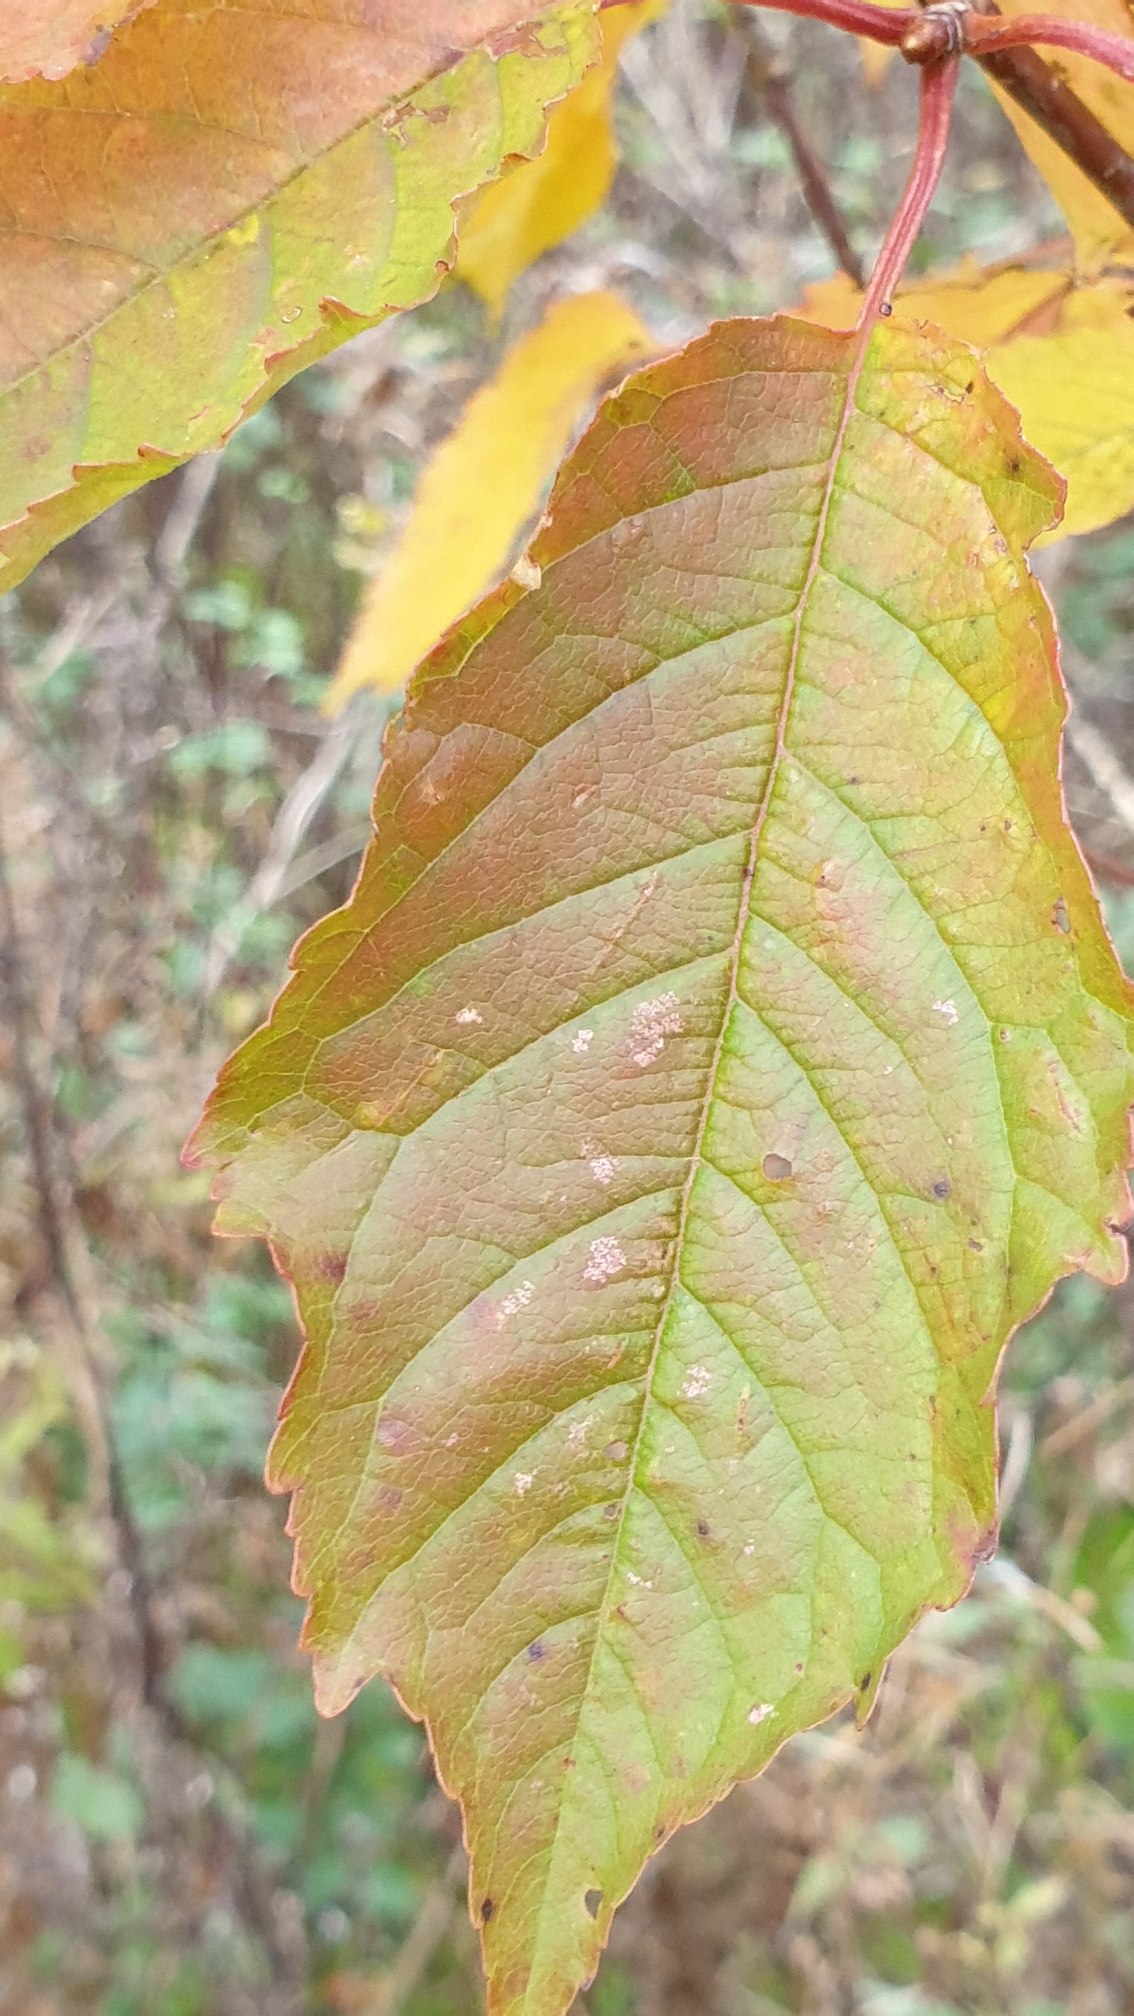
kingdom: Plantae
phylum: Tracheophyta
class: Magnoliopsida
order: Rosales
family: Rosaceae
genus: Prunus
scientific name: Prunus avium
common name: Fugle-kirsebær
